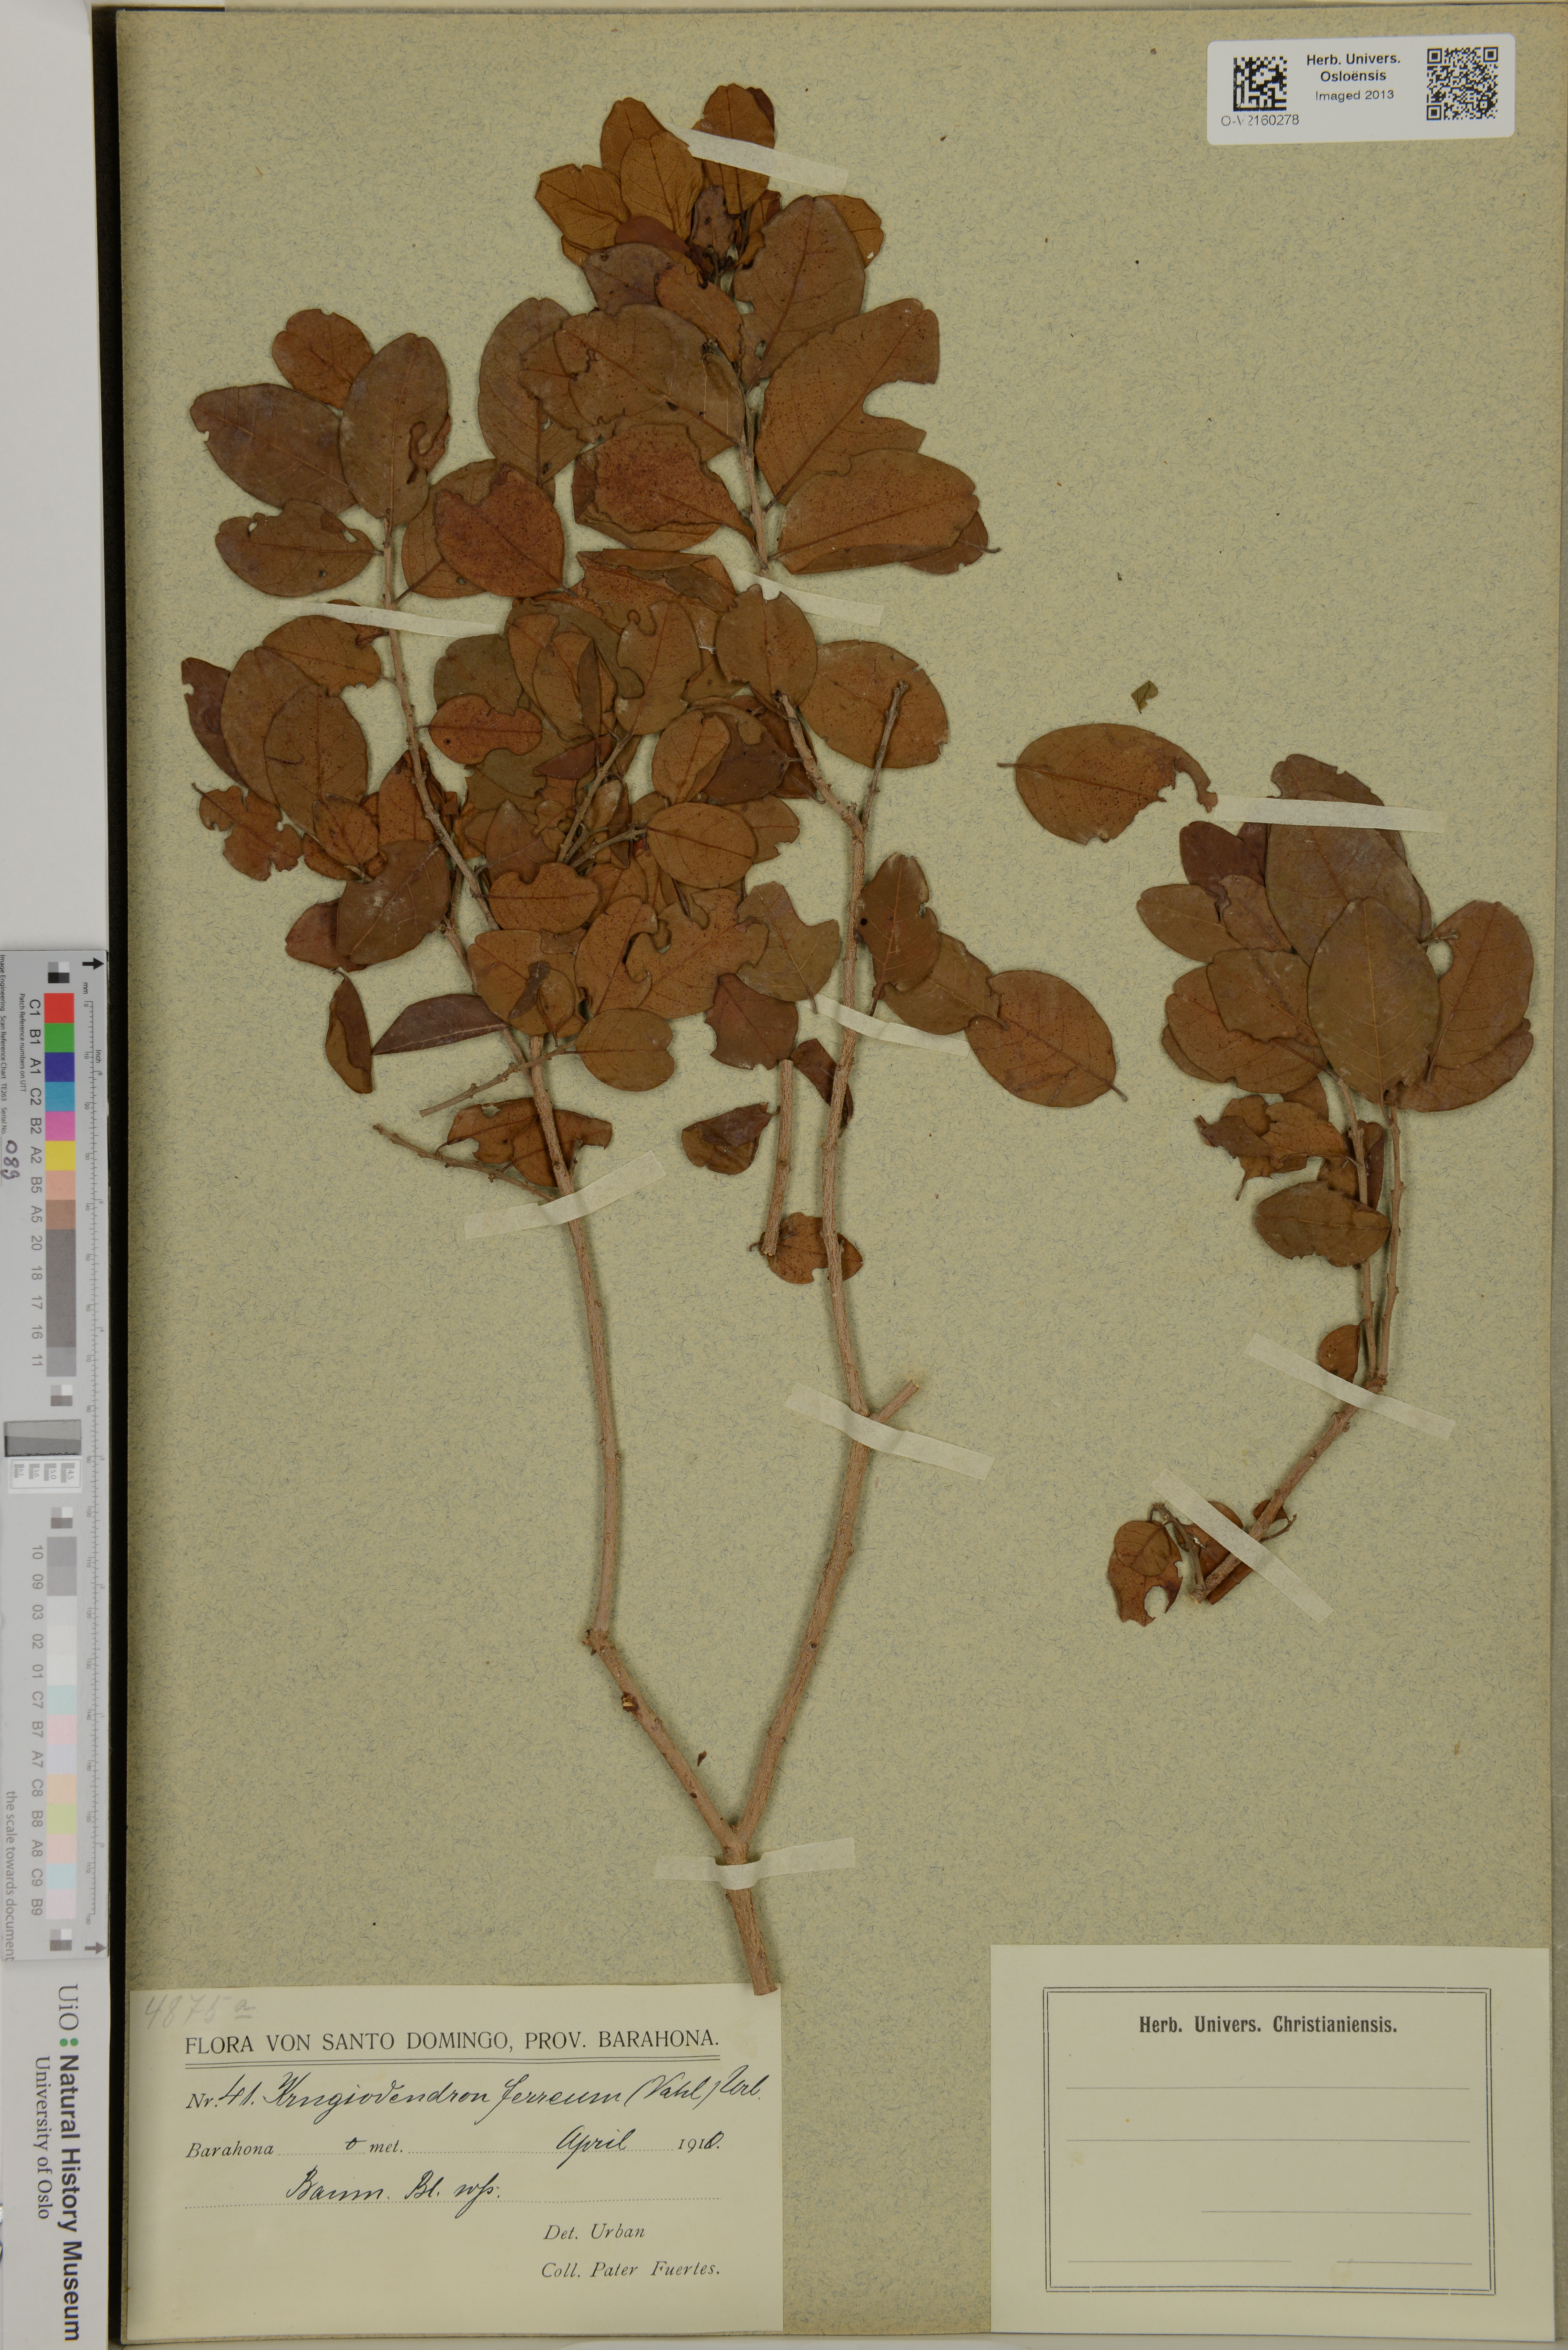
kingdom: Plantae
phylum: Tracheophyta
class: Magnoliopsida
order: Rosales
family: Rhamnaceae
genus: Krugiodendron
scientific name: Krugiodendron ferreum
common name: Iron wood
